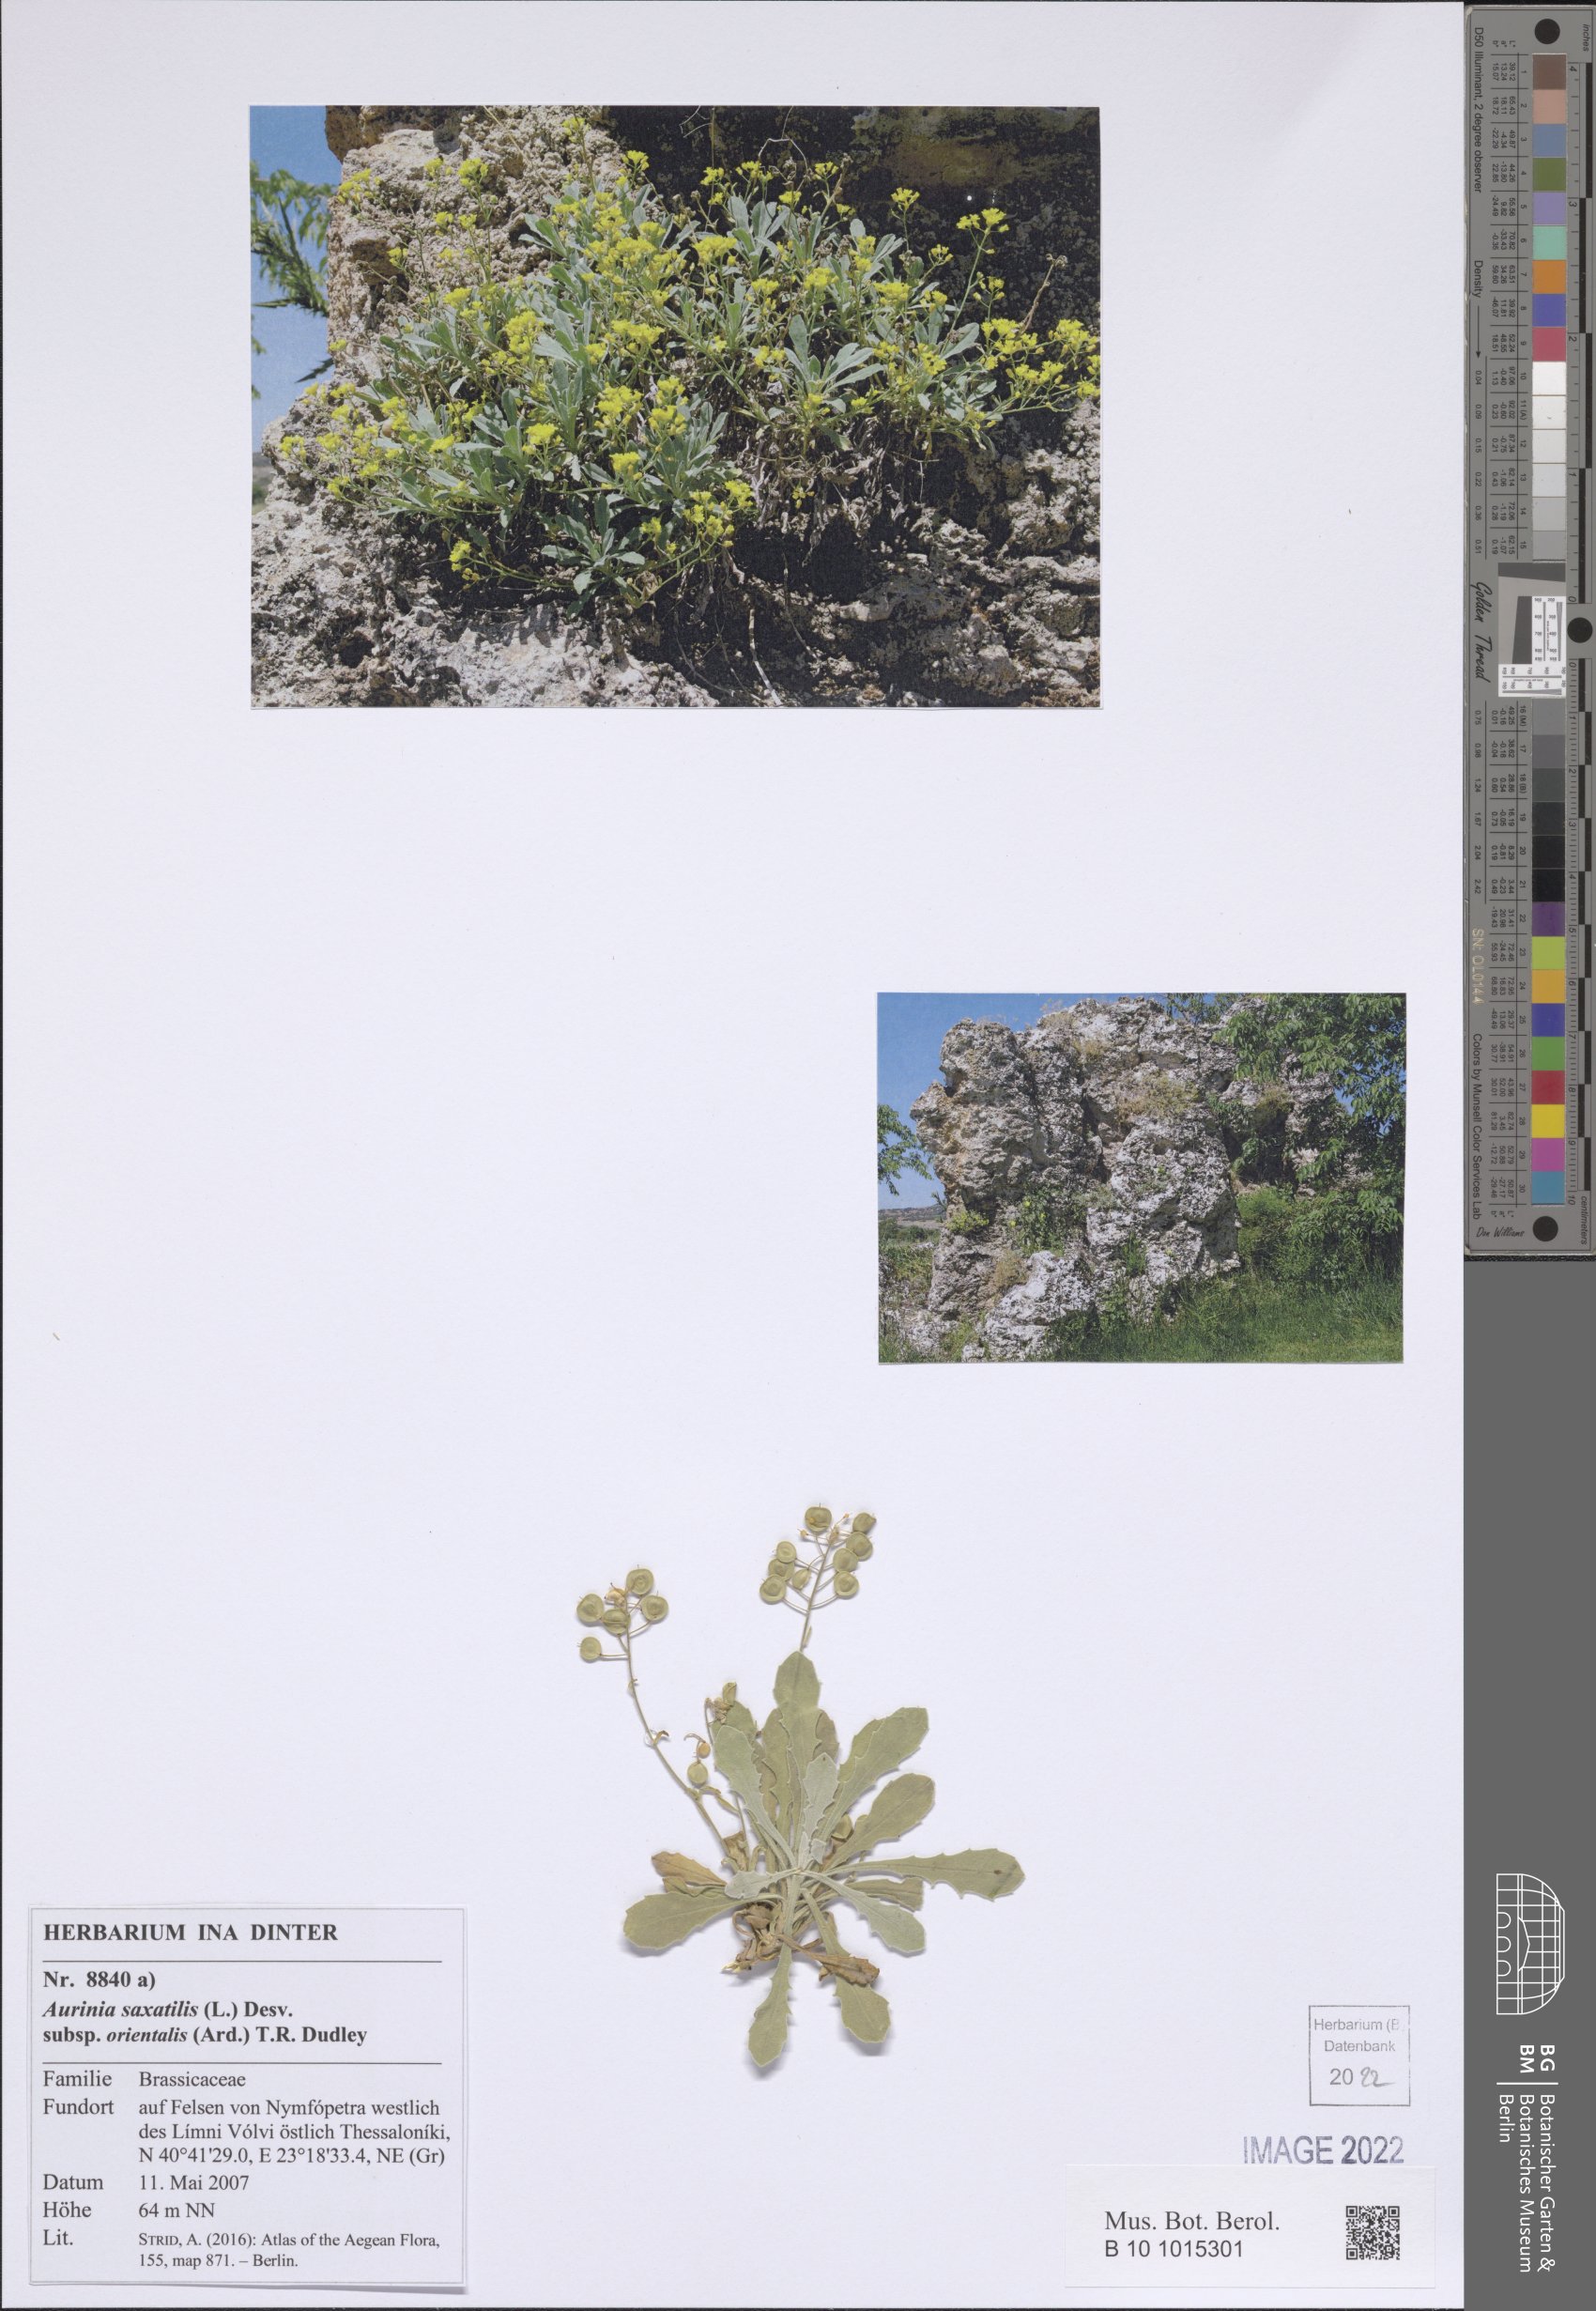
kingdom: Plantae
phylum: Tracheophyta
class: Magnoliopsida
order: Brassicales
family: Brassicaceae
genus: Aurinia
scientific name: Aurinia saxatilis
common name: Golden-tuft alyssum
